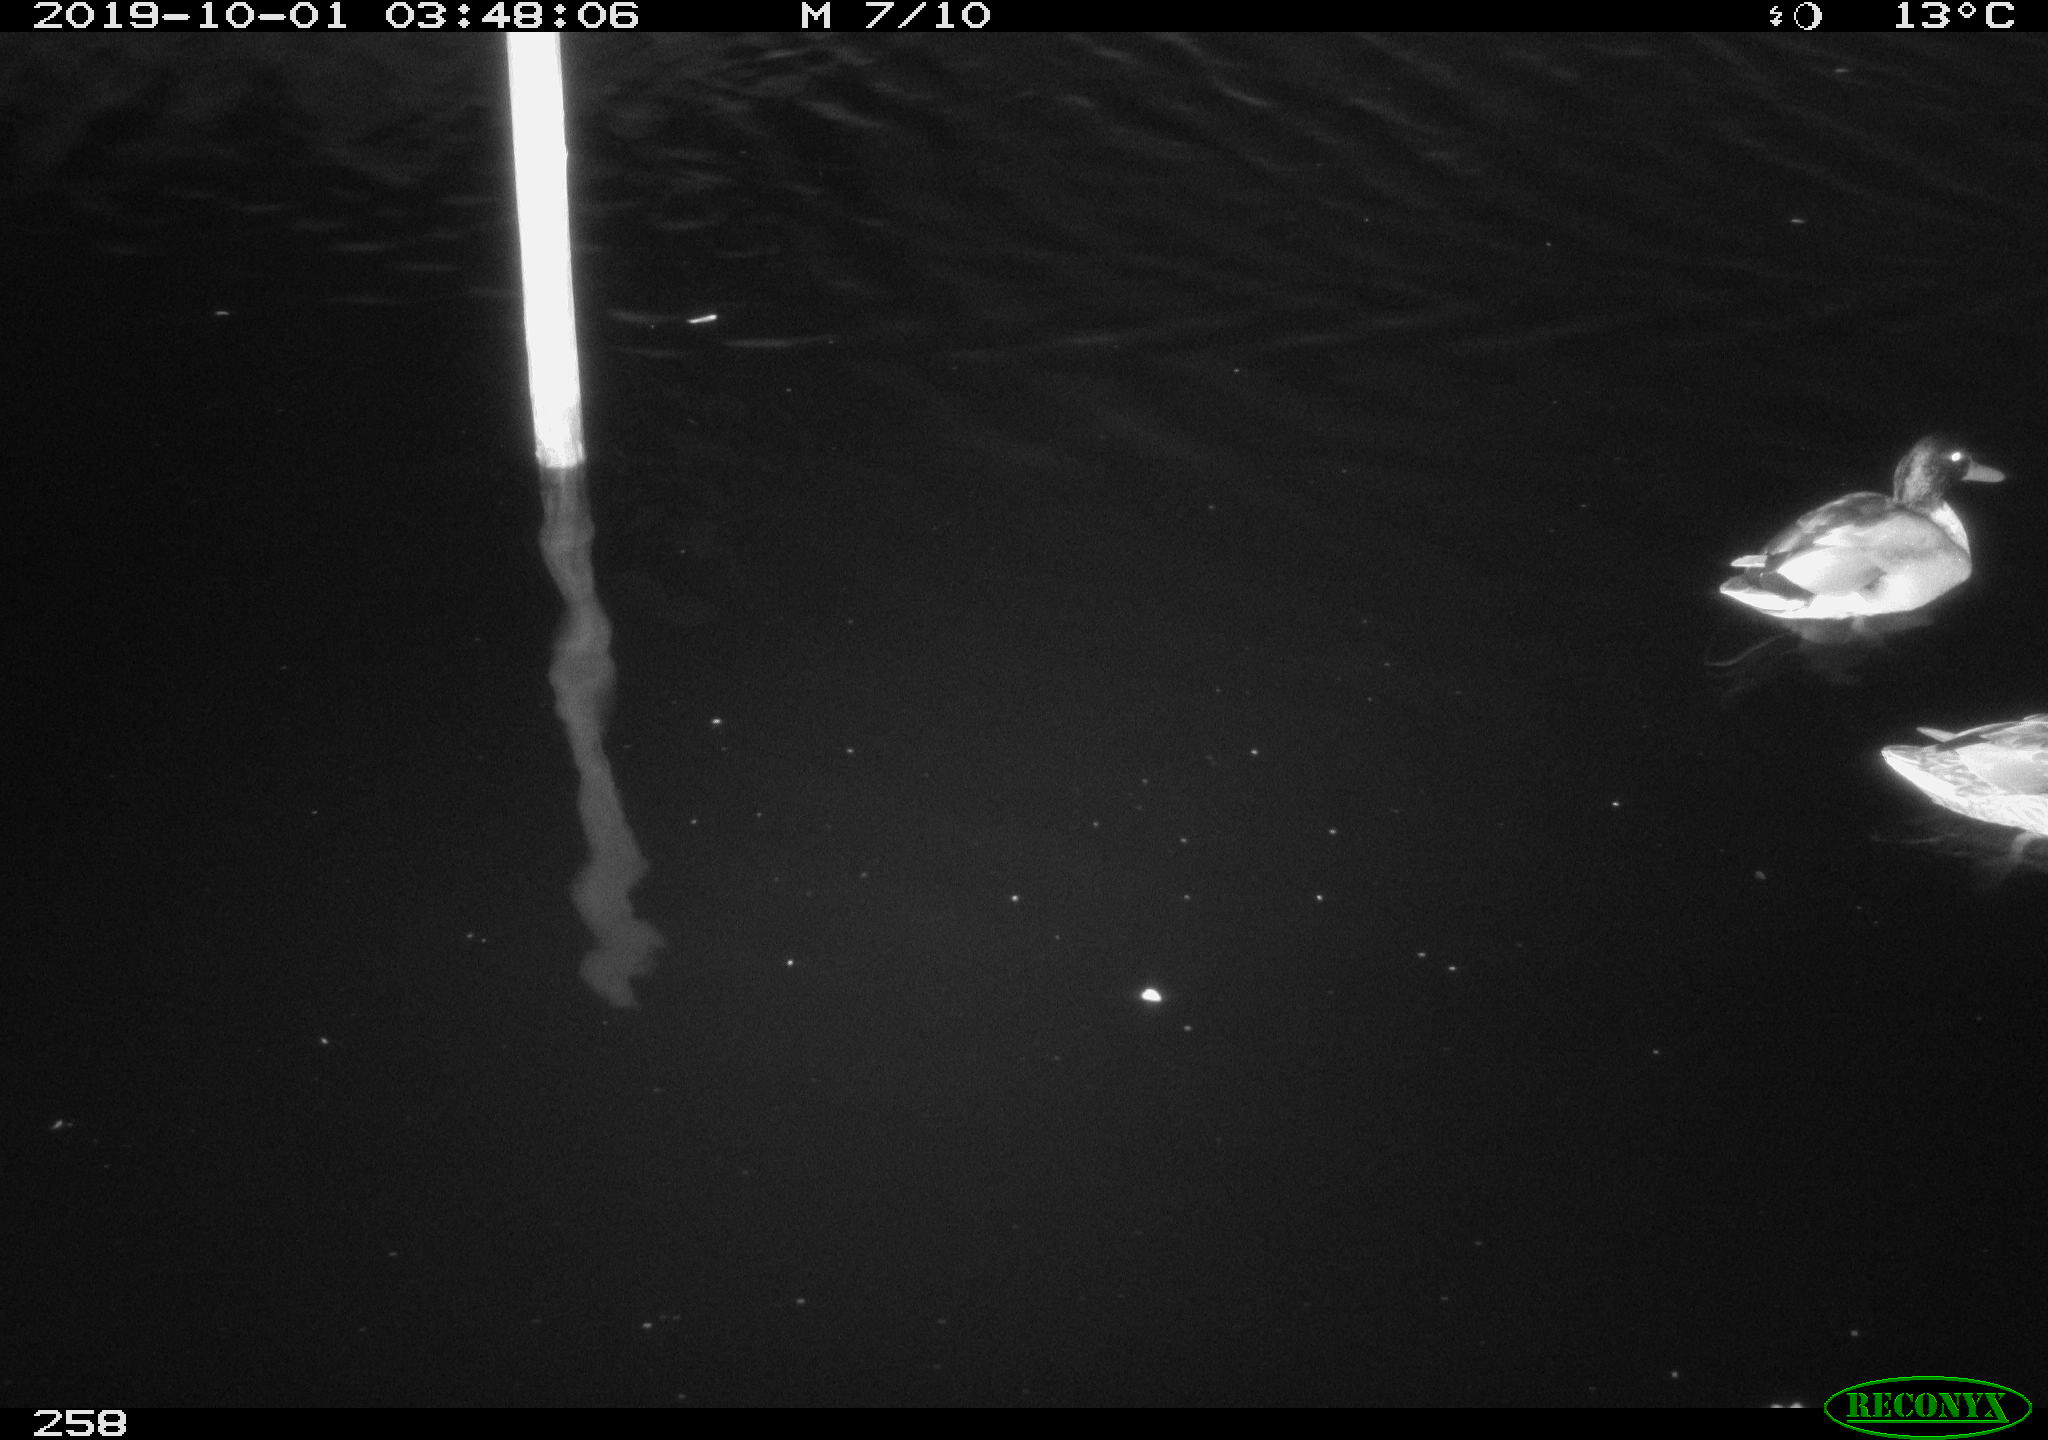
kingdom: Animalia
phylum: Chordata
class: Aves
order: Anseriformes
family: Anatidae
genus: Anas
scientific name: Anas platyrhynchos
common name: Mallard
